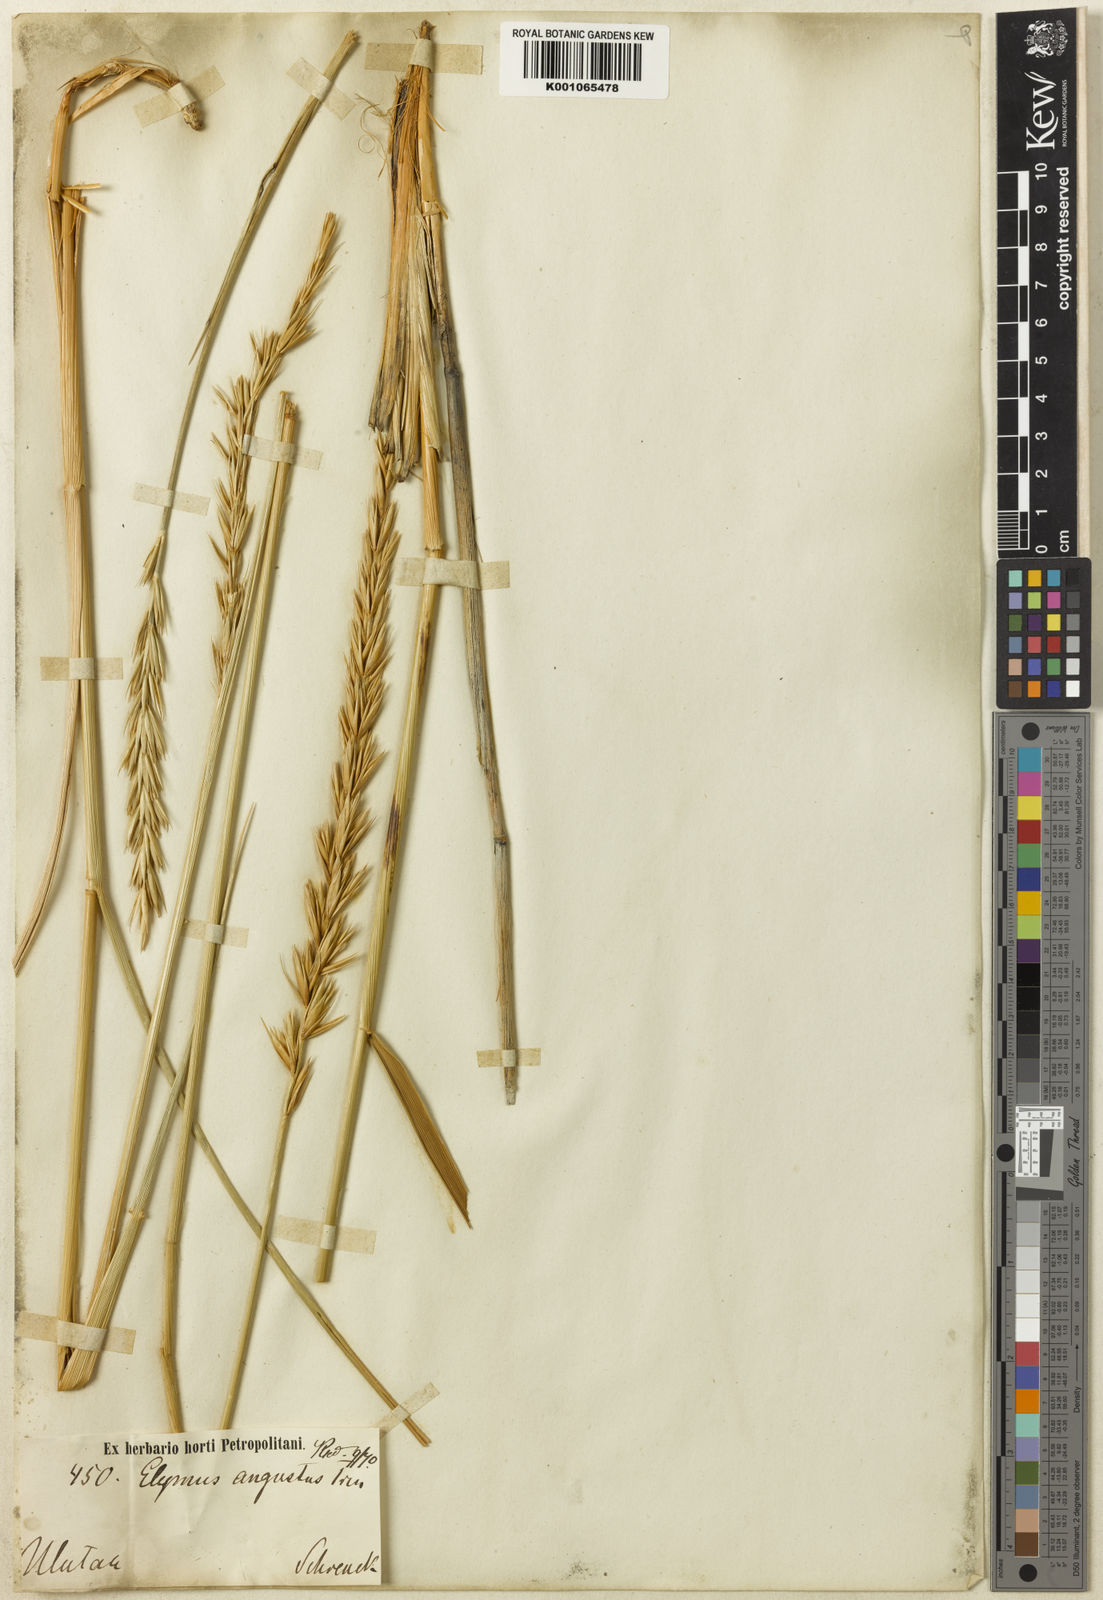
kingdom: Plantae
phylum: Tracheophyta
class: Liliopsida
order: Poales
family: Poaceae
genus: Leymus
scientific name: Leymus angustus
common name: Altai wildrye
